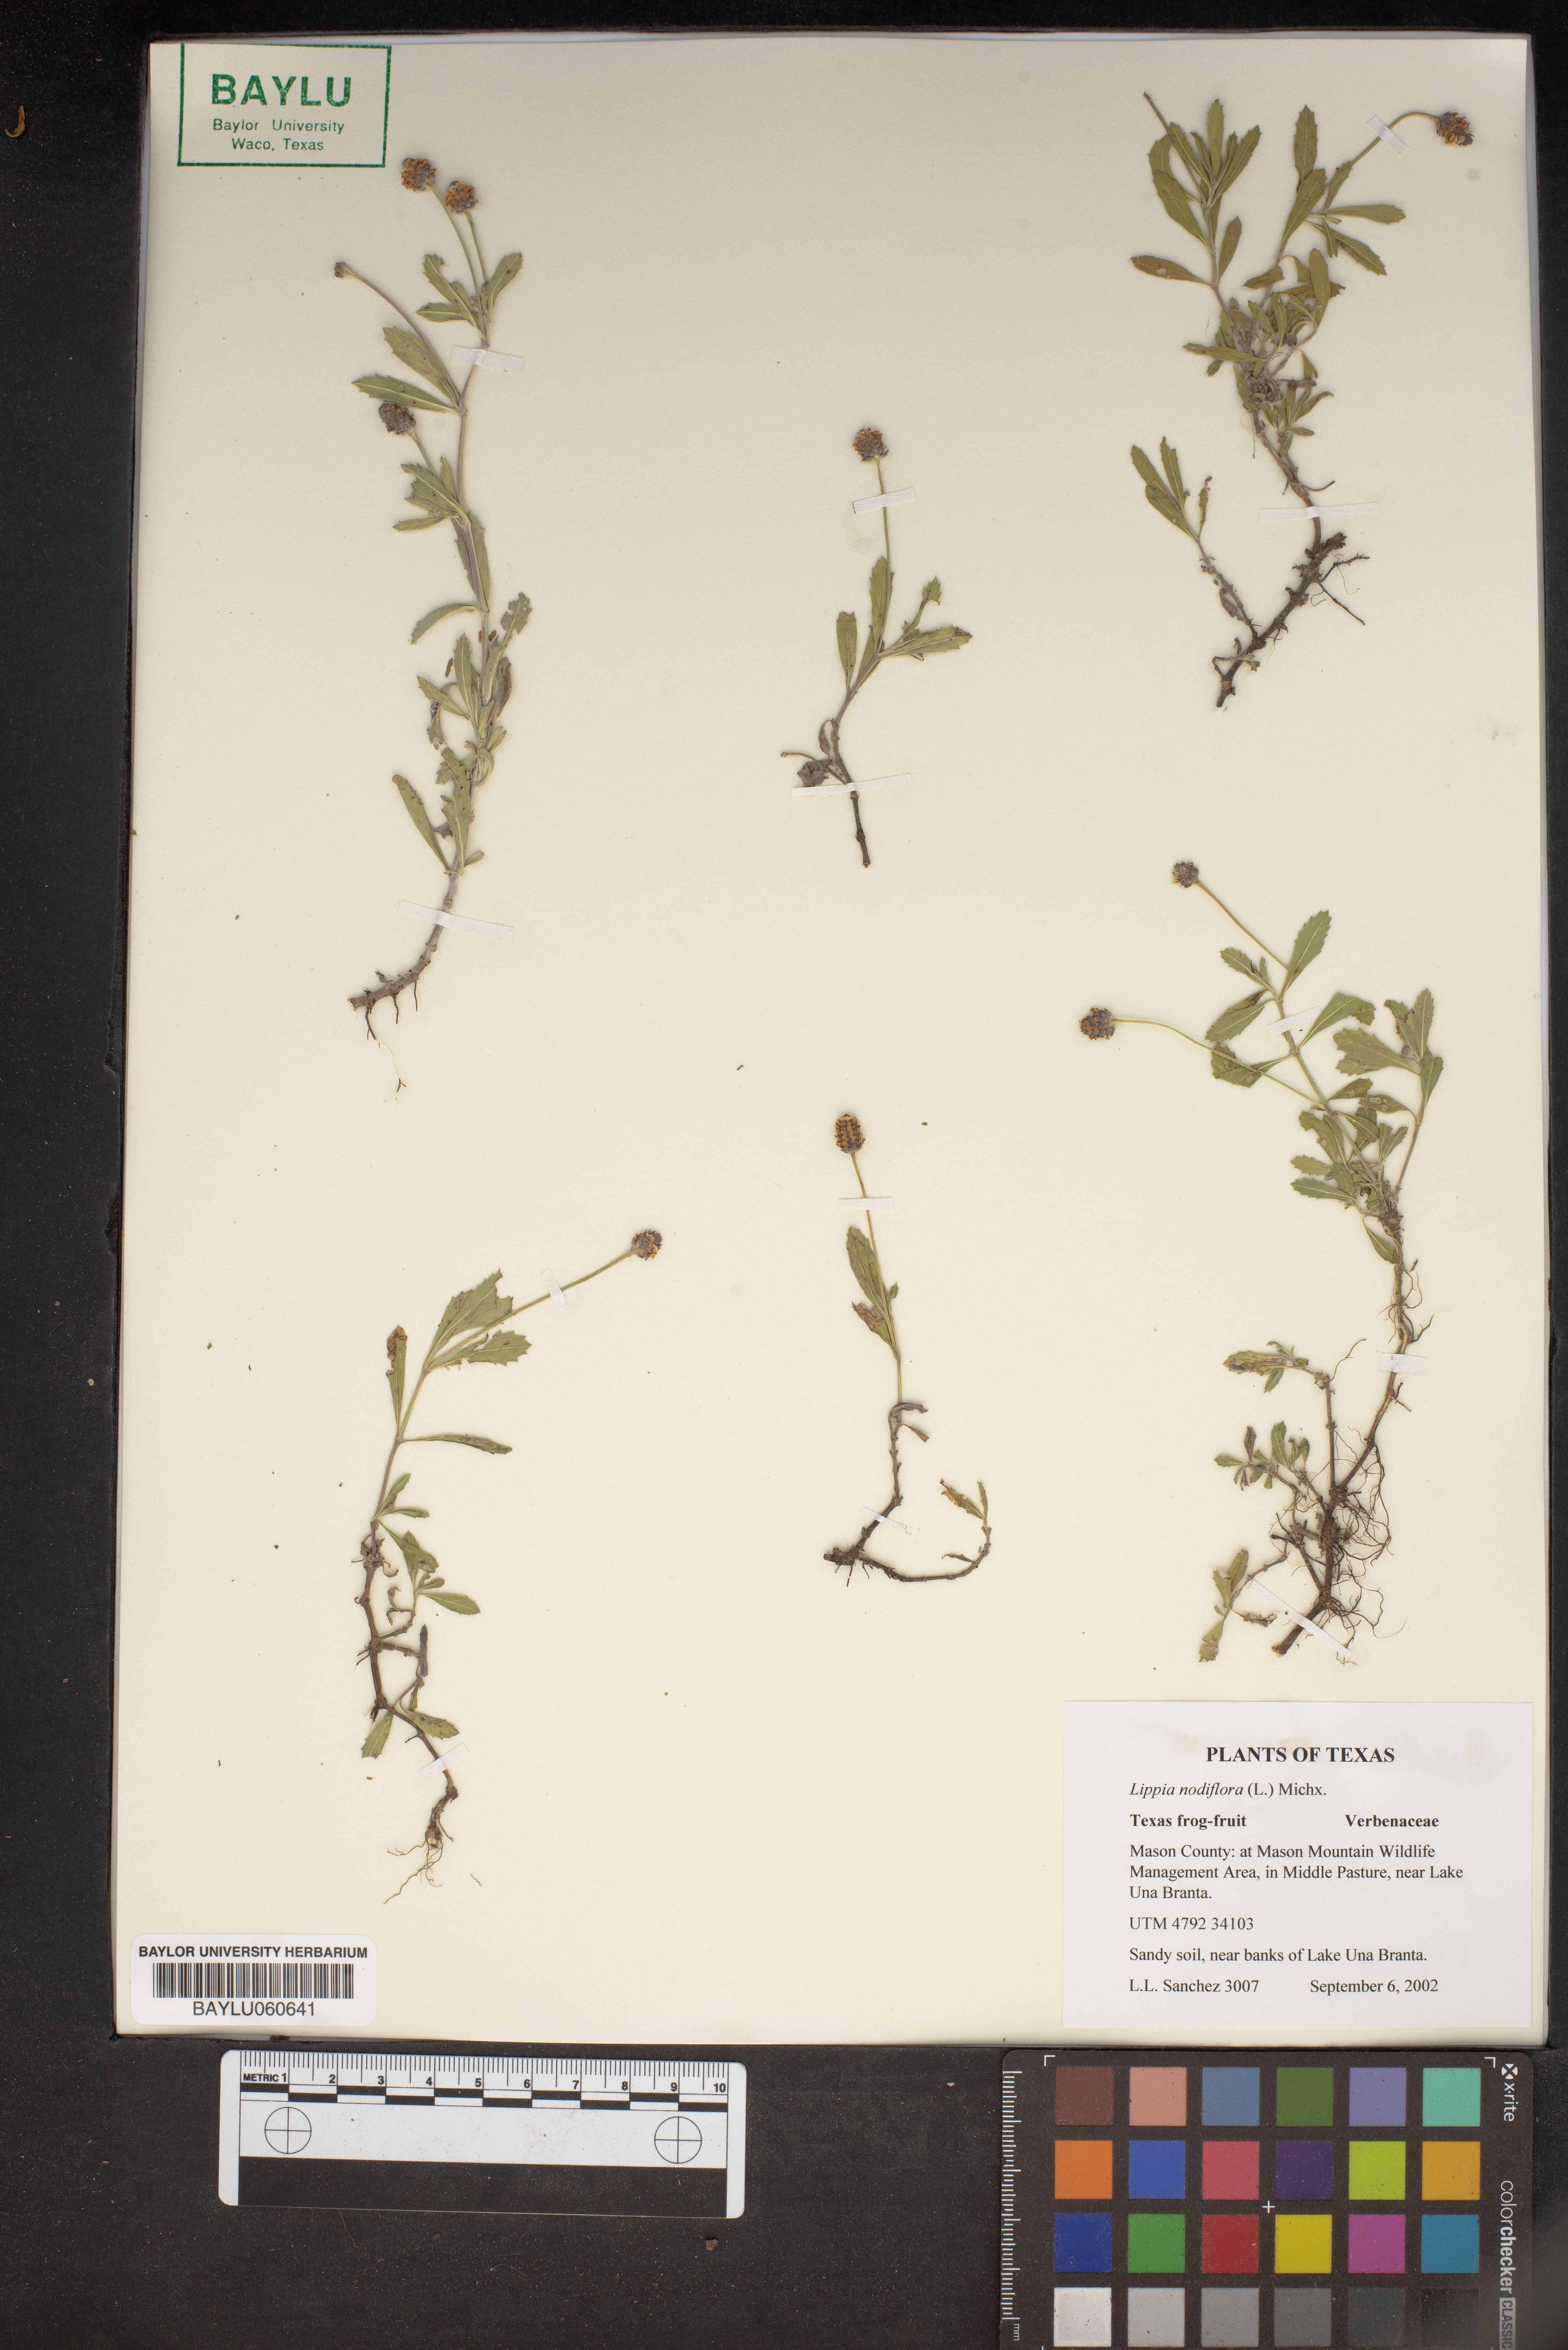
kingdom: Plantae
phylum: Tracheophyta
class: Magnoliopsida
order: Lamiales
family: Verbenaceae
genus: Phyla
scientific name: Phyla nodiflora
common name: Frogfruit
